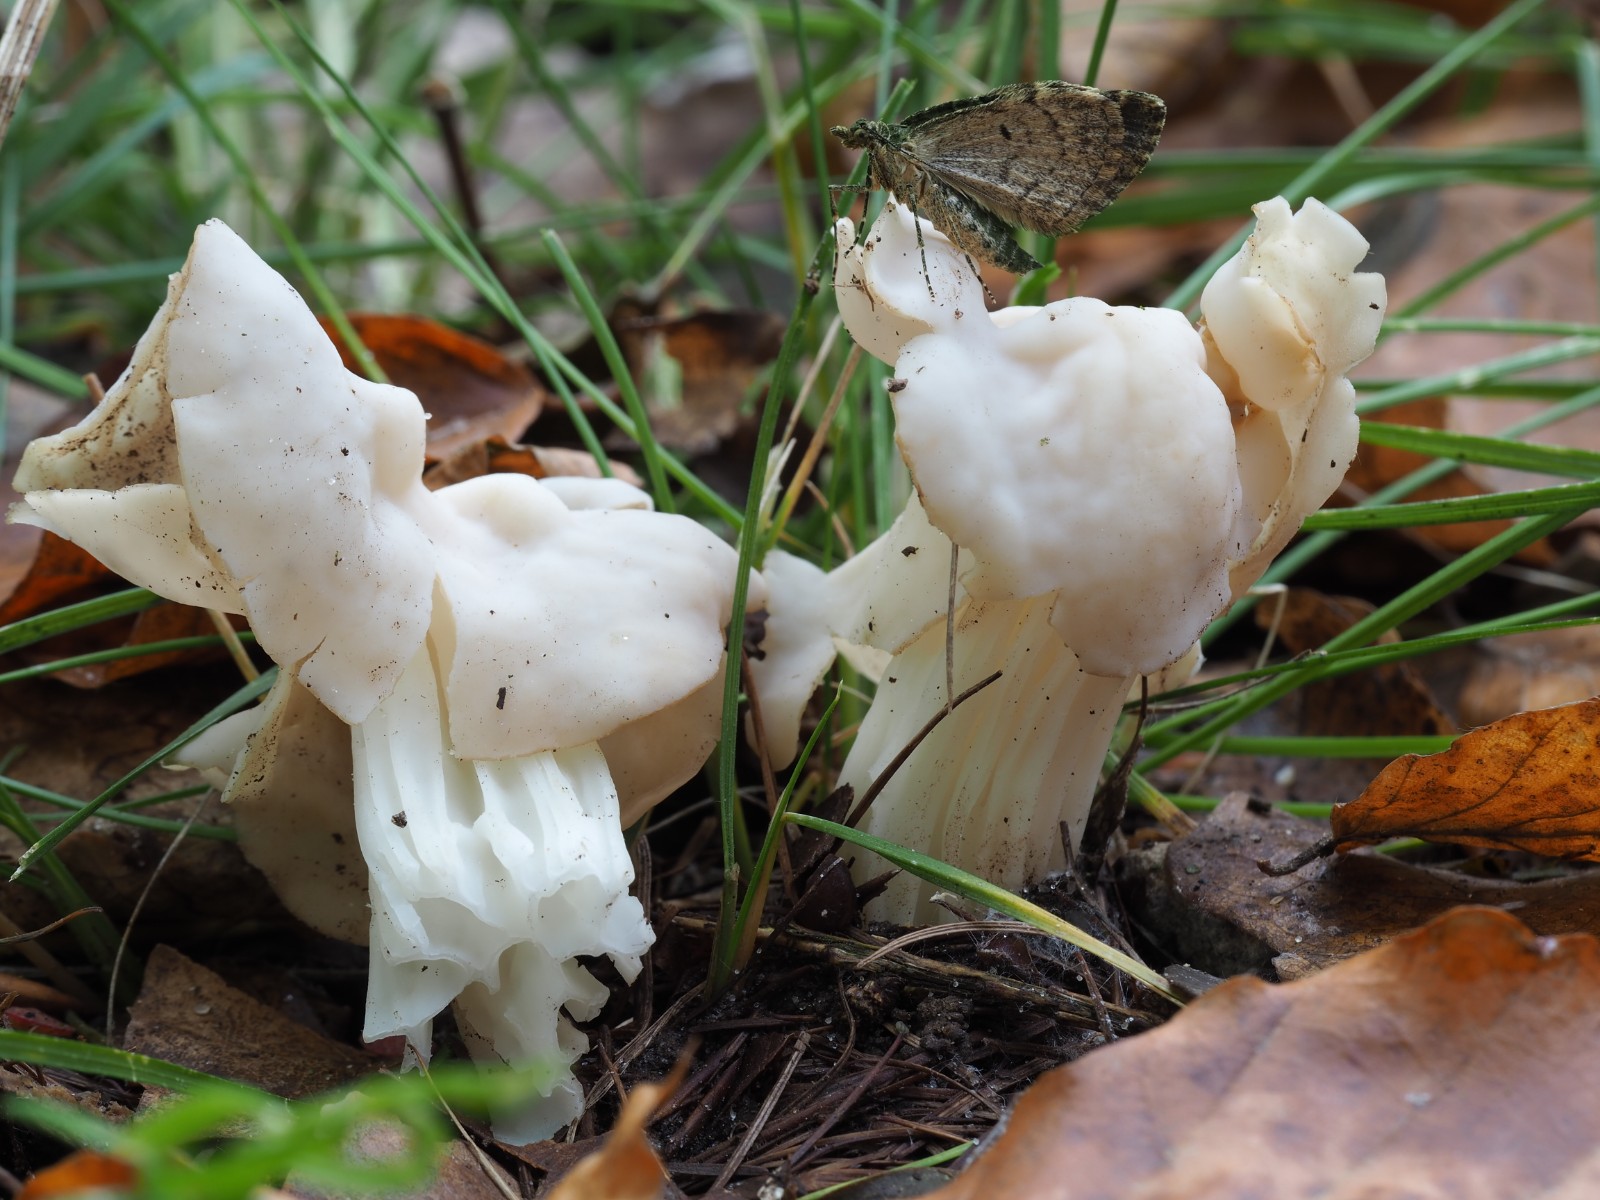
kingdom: Fungi
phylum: Ascomycota
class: Pezizomycetes
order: Pezizales
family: Helvellaceae
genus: Helvella
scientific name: Helvella crispa
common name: kruset foldhat
